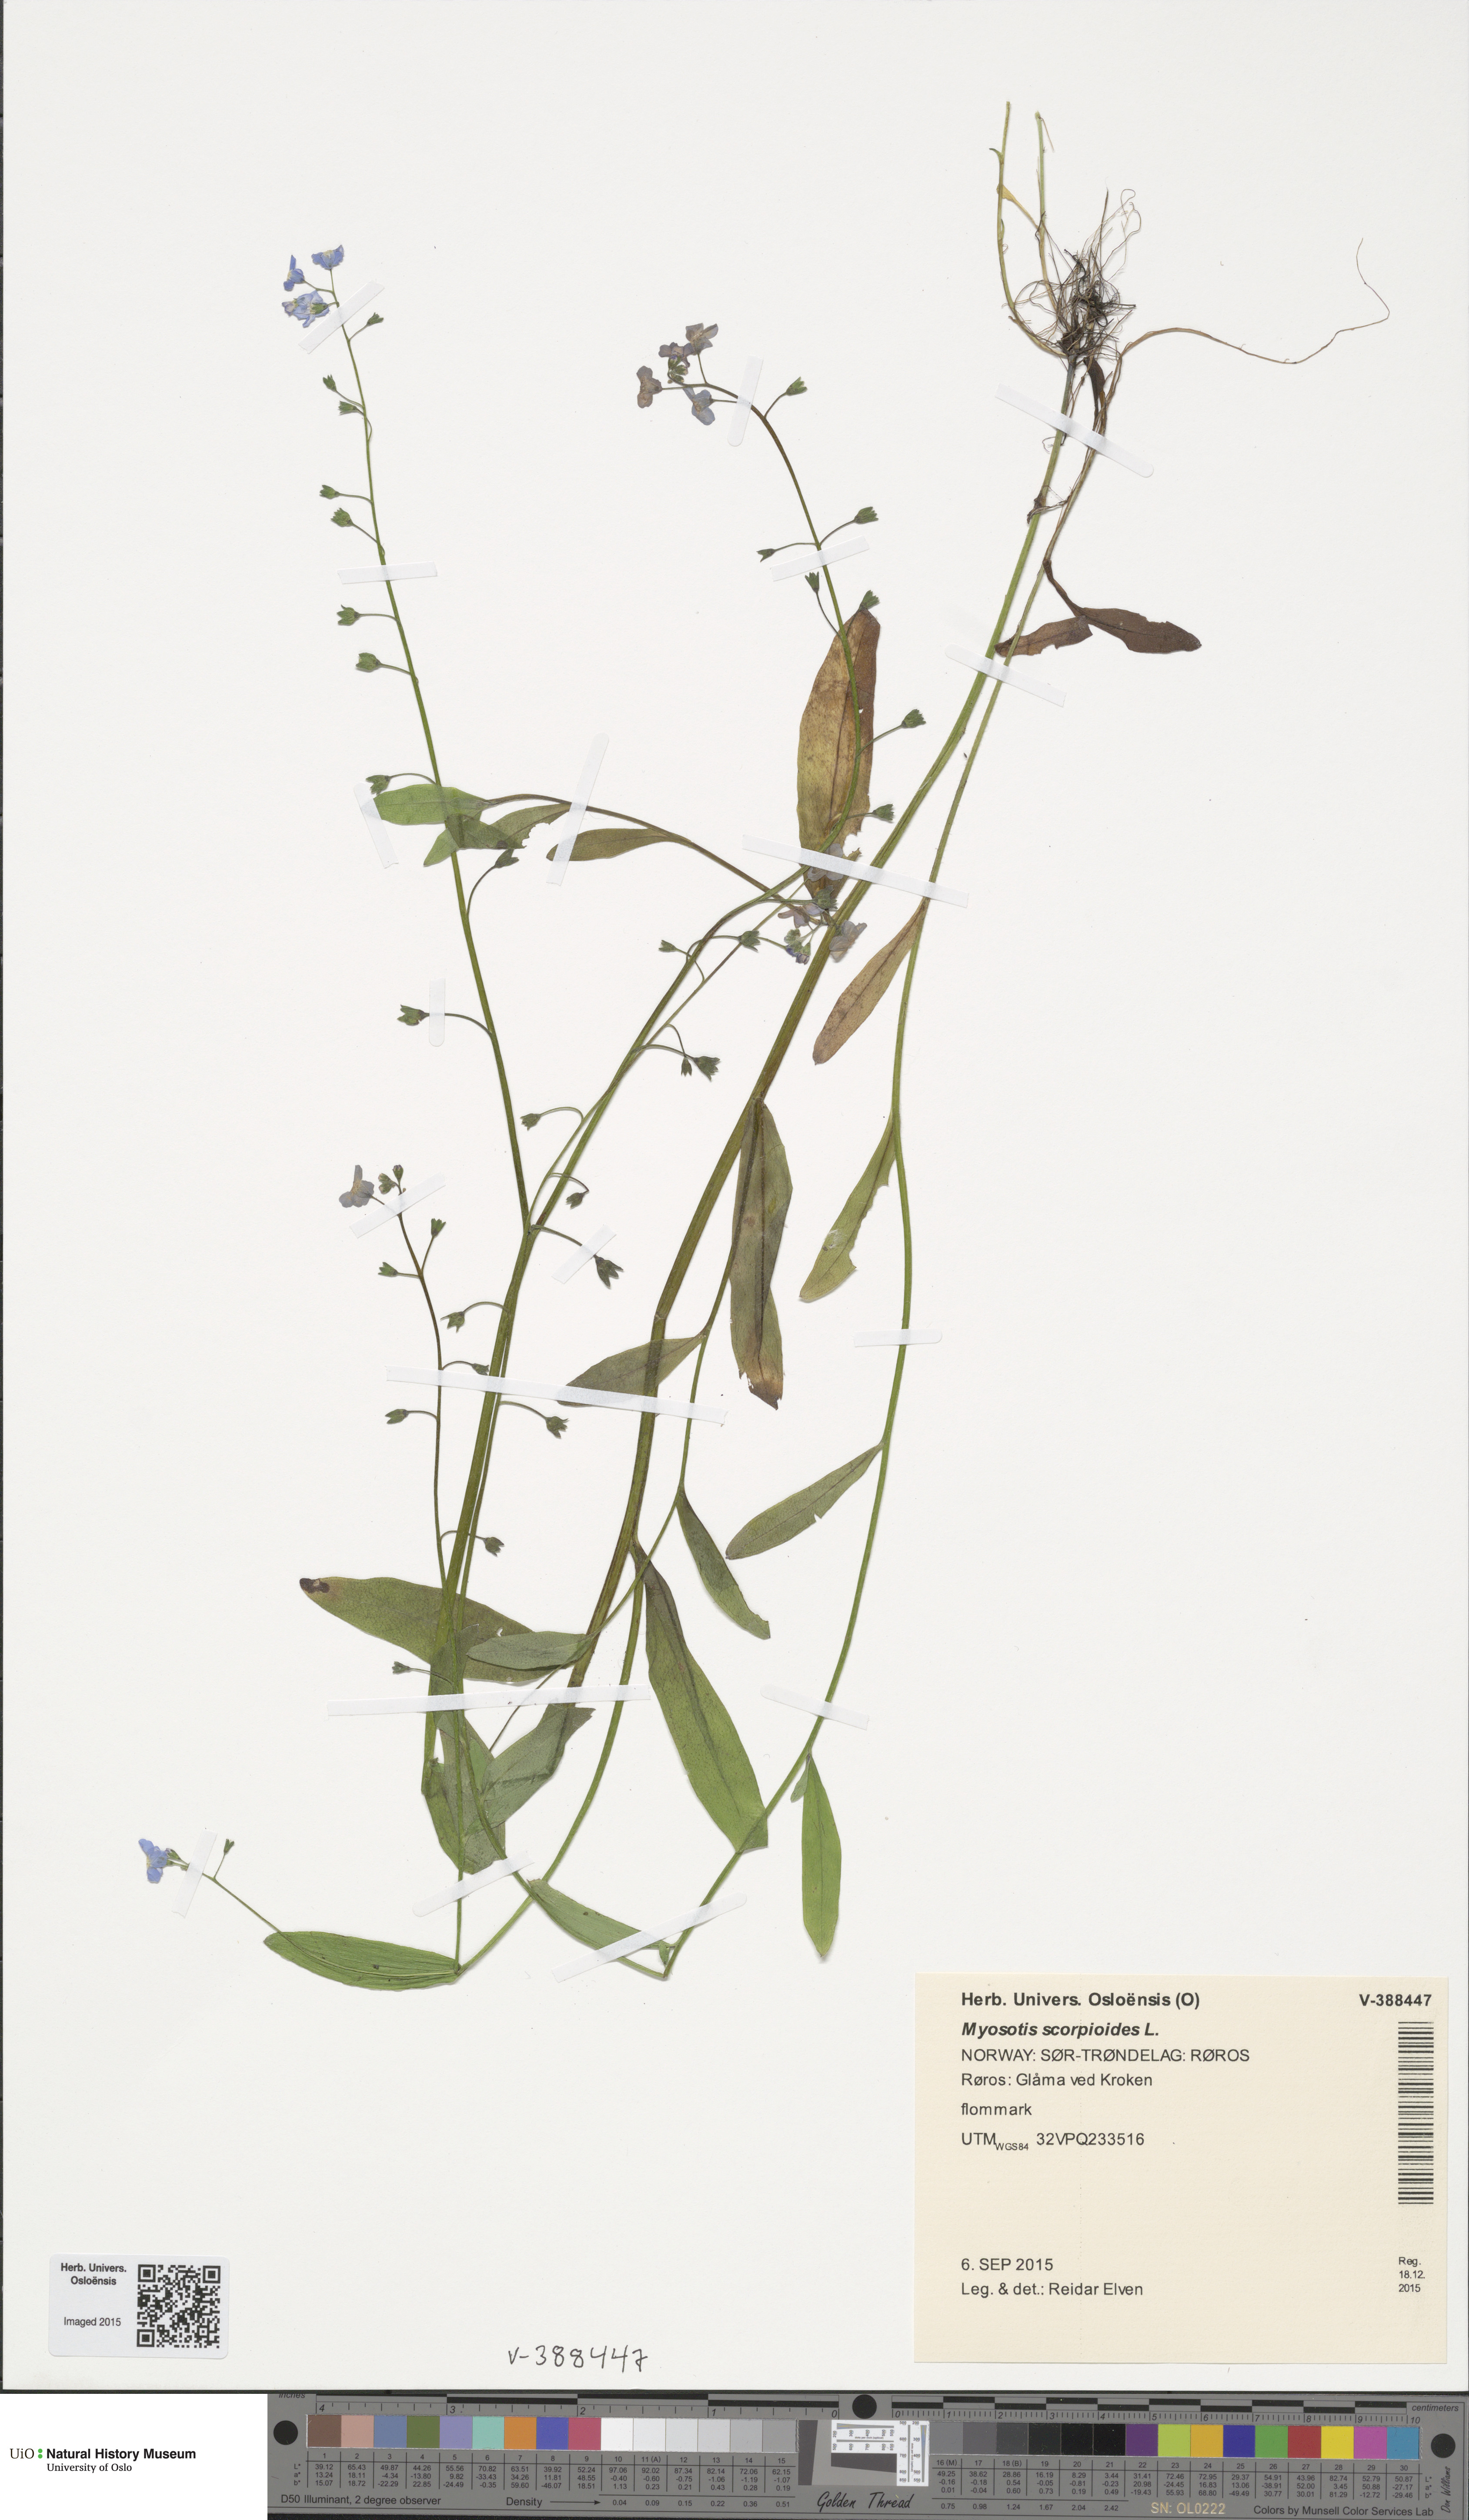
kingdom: Plantae
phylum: Tracheophyta
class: Magnoliopsida
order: Boraginales
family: Boraginaceae
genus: Myosotis
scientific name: Myosotis scorpioides
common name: Water forget-me-not
